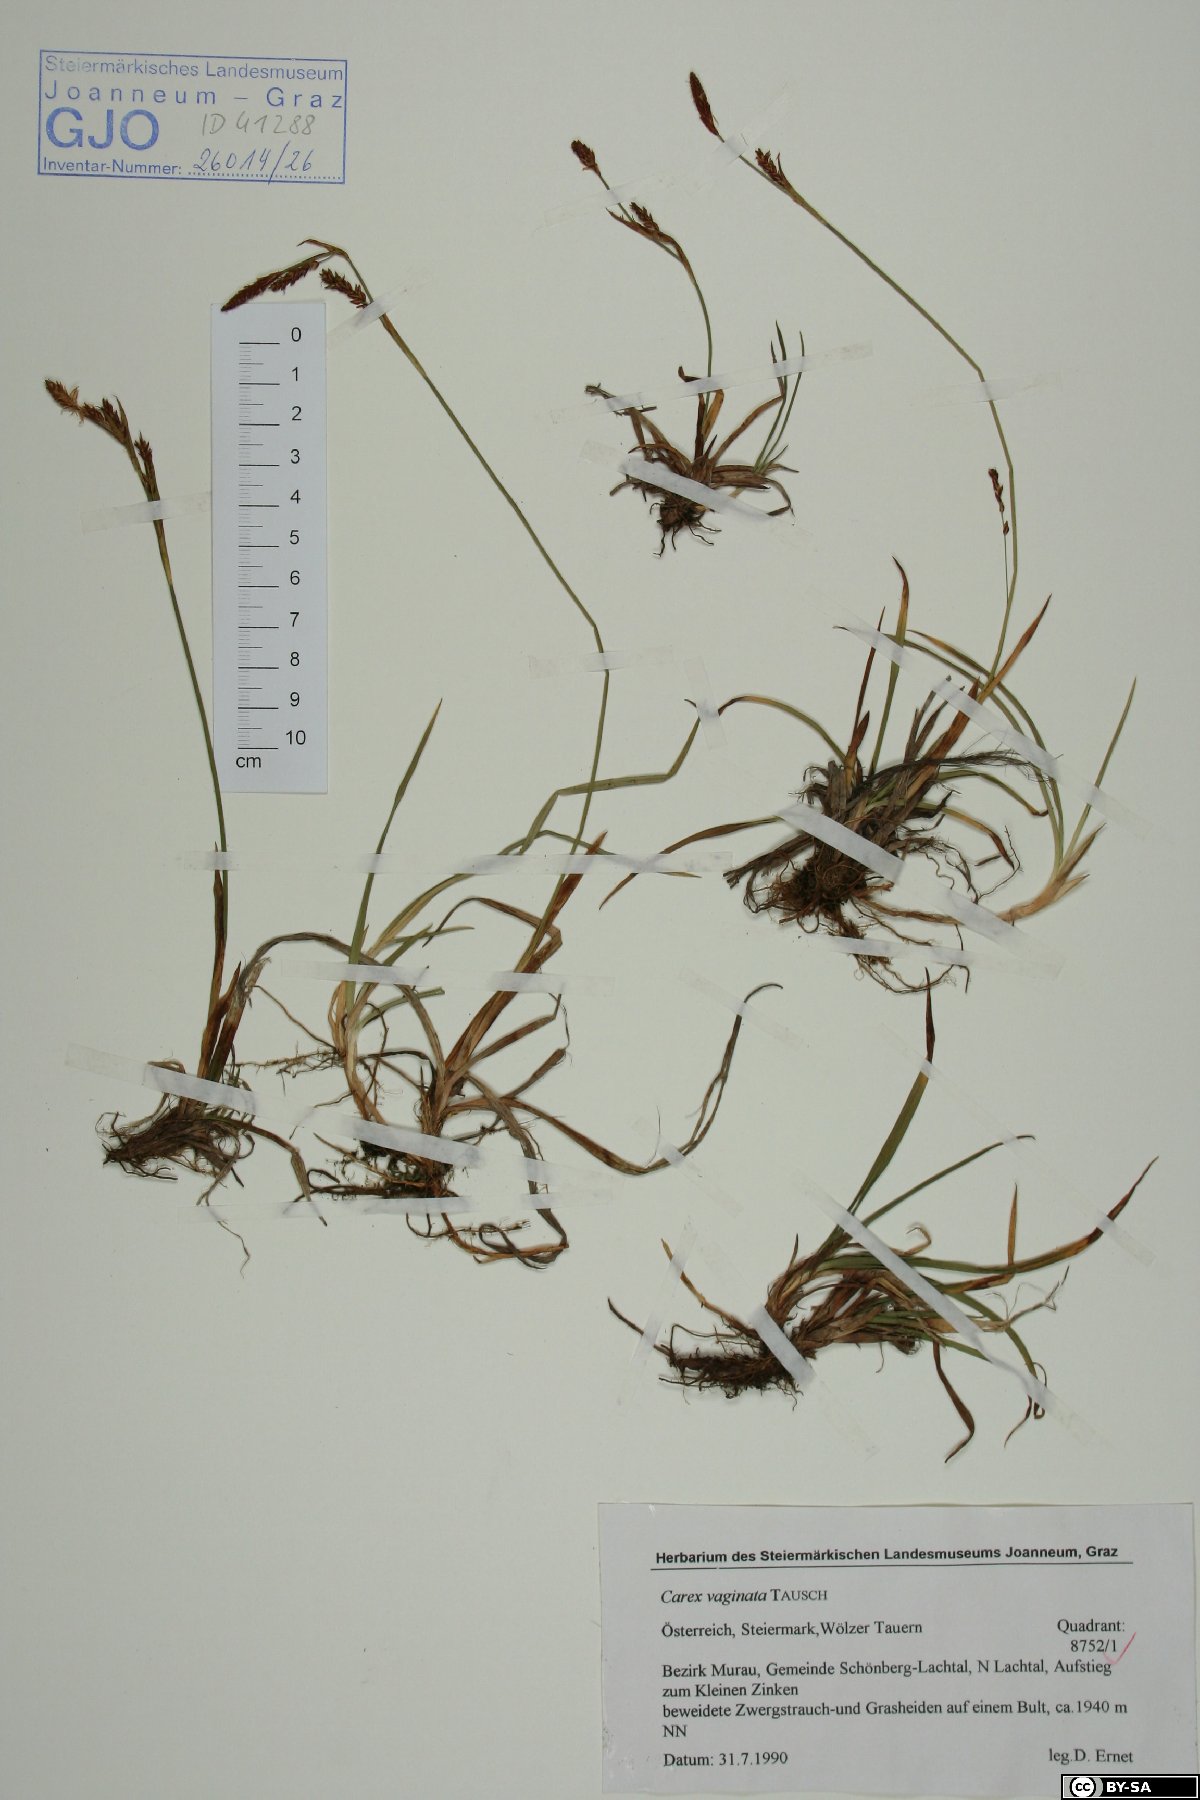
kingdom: Plantae
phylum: Tracheophyta
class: Liliopsida
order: Poales
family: Cyperaceae
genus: Carex
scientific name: Carex vaginata
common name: Sheathed sedge
